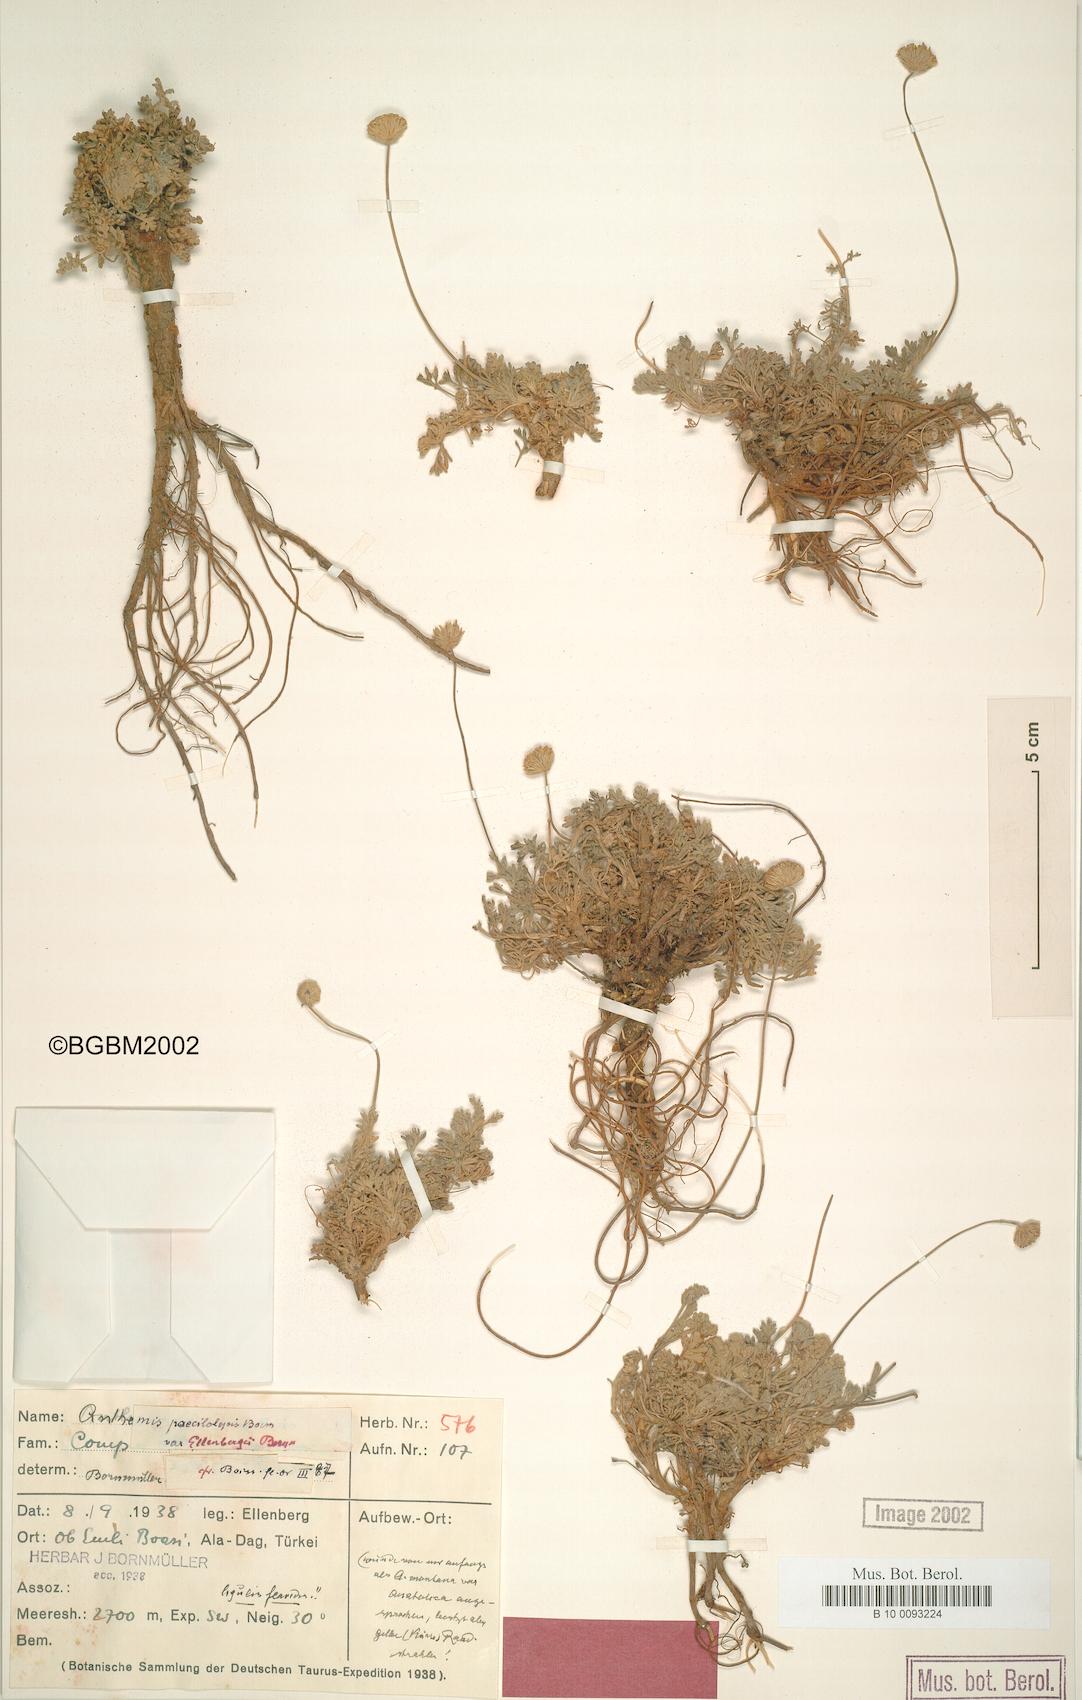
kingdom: Plantae
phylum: Tracheophyta
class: Magnoliopsida
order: Asterales
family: Asteraceae
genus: Anthemis
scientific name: Anthemis kotschyana
